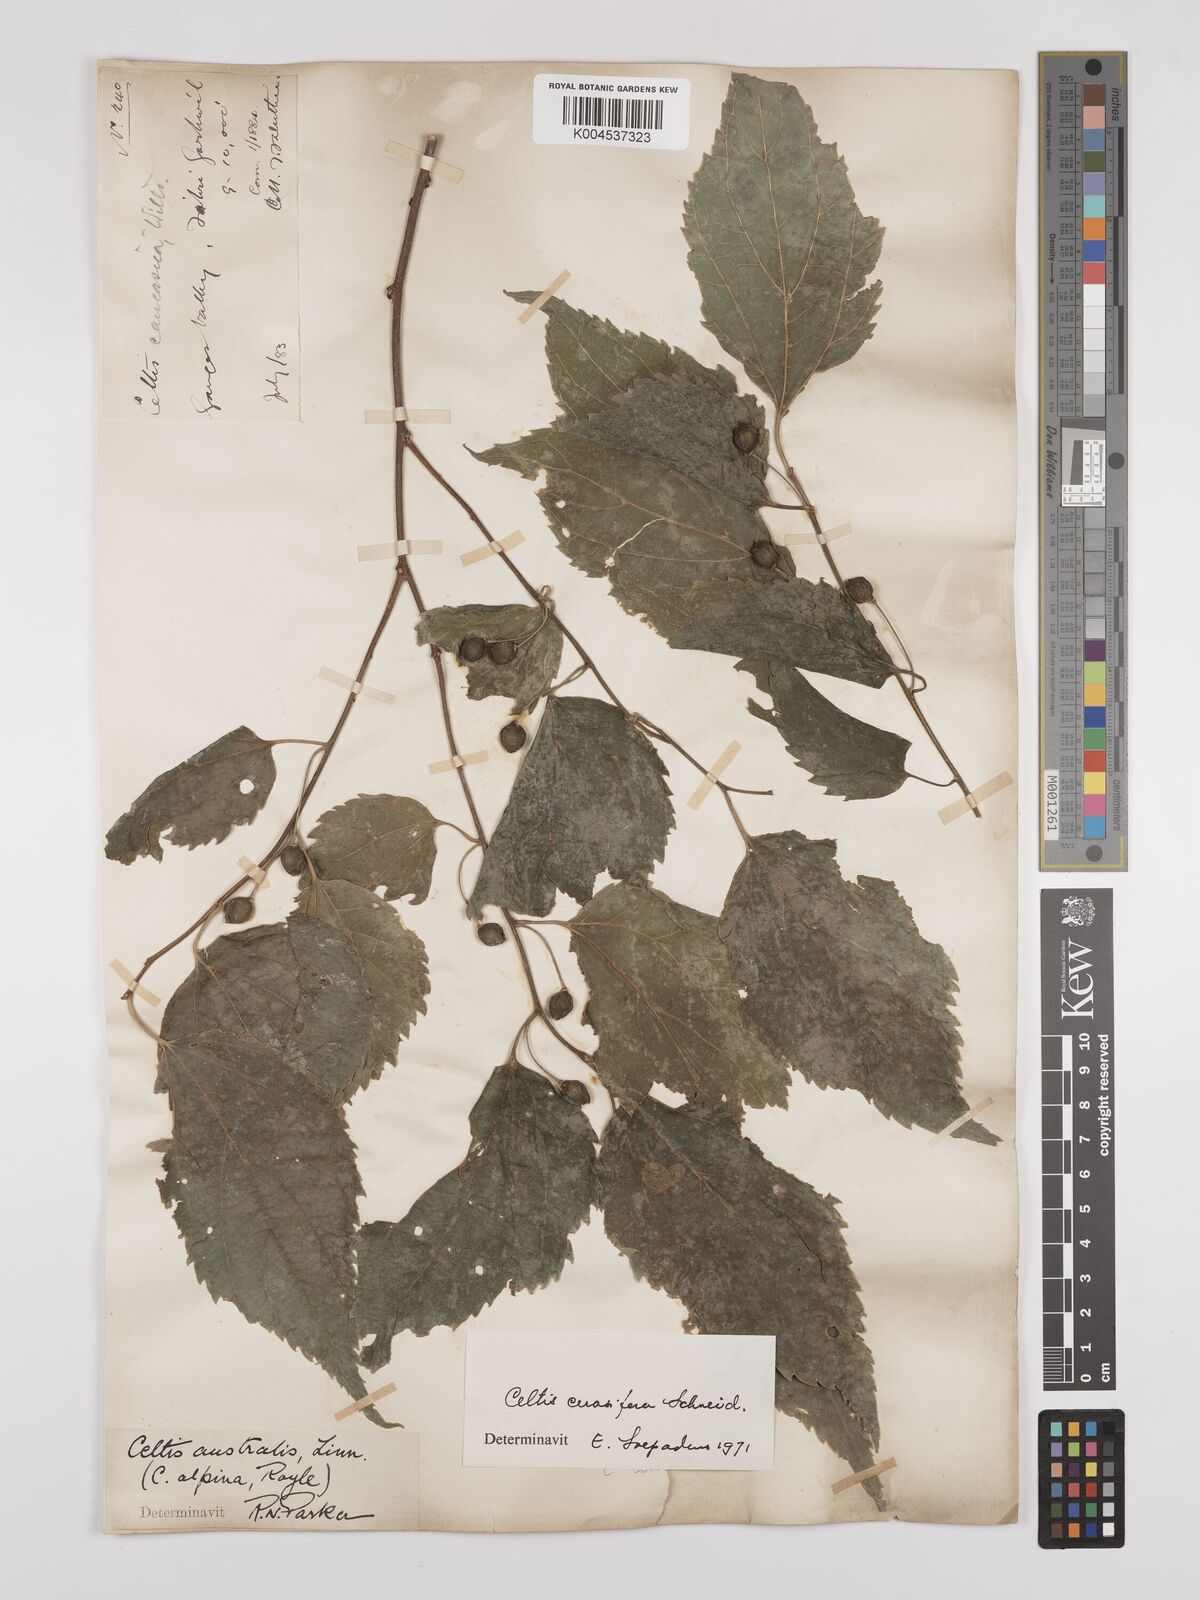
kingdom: Plantae
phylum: Tracheophyta
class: Magnoliopsida
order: Rosales
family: Cannabaceae
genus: Celtis
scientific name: Celtis cerasifera
